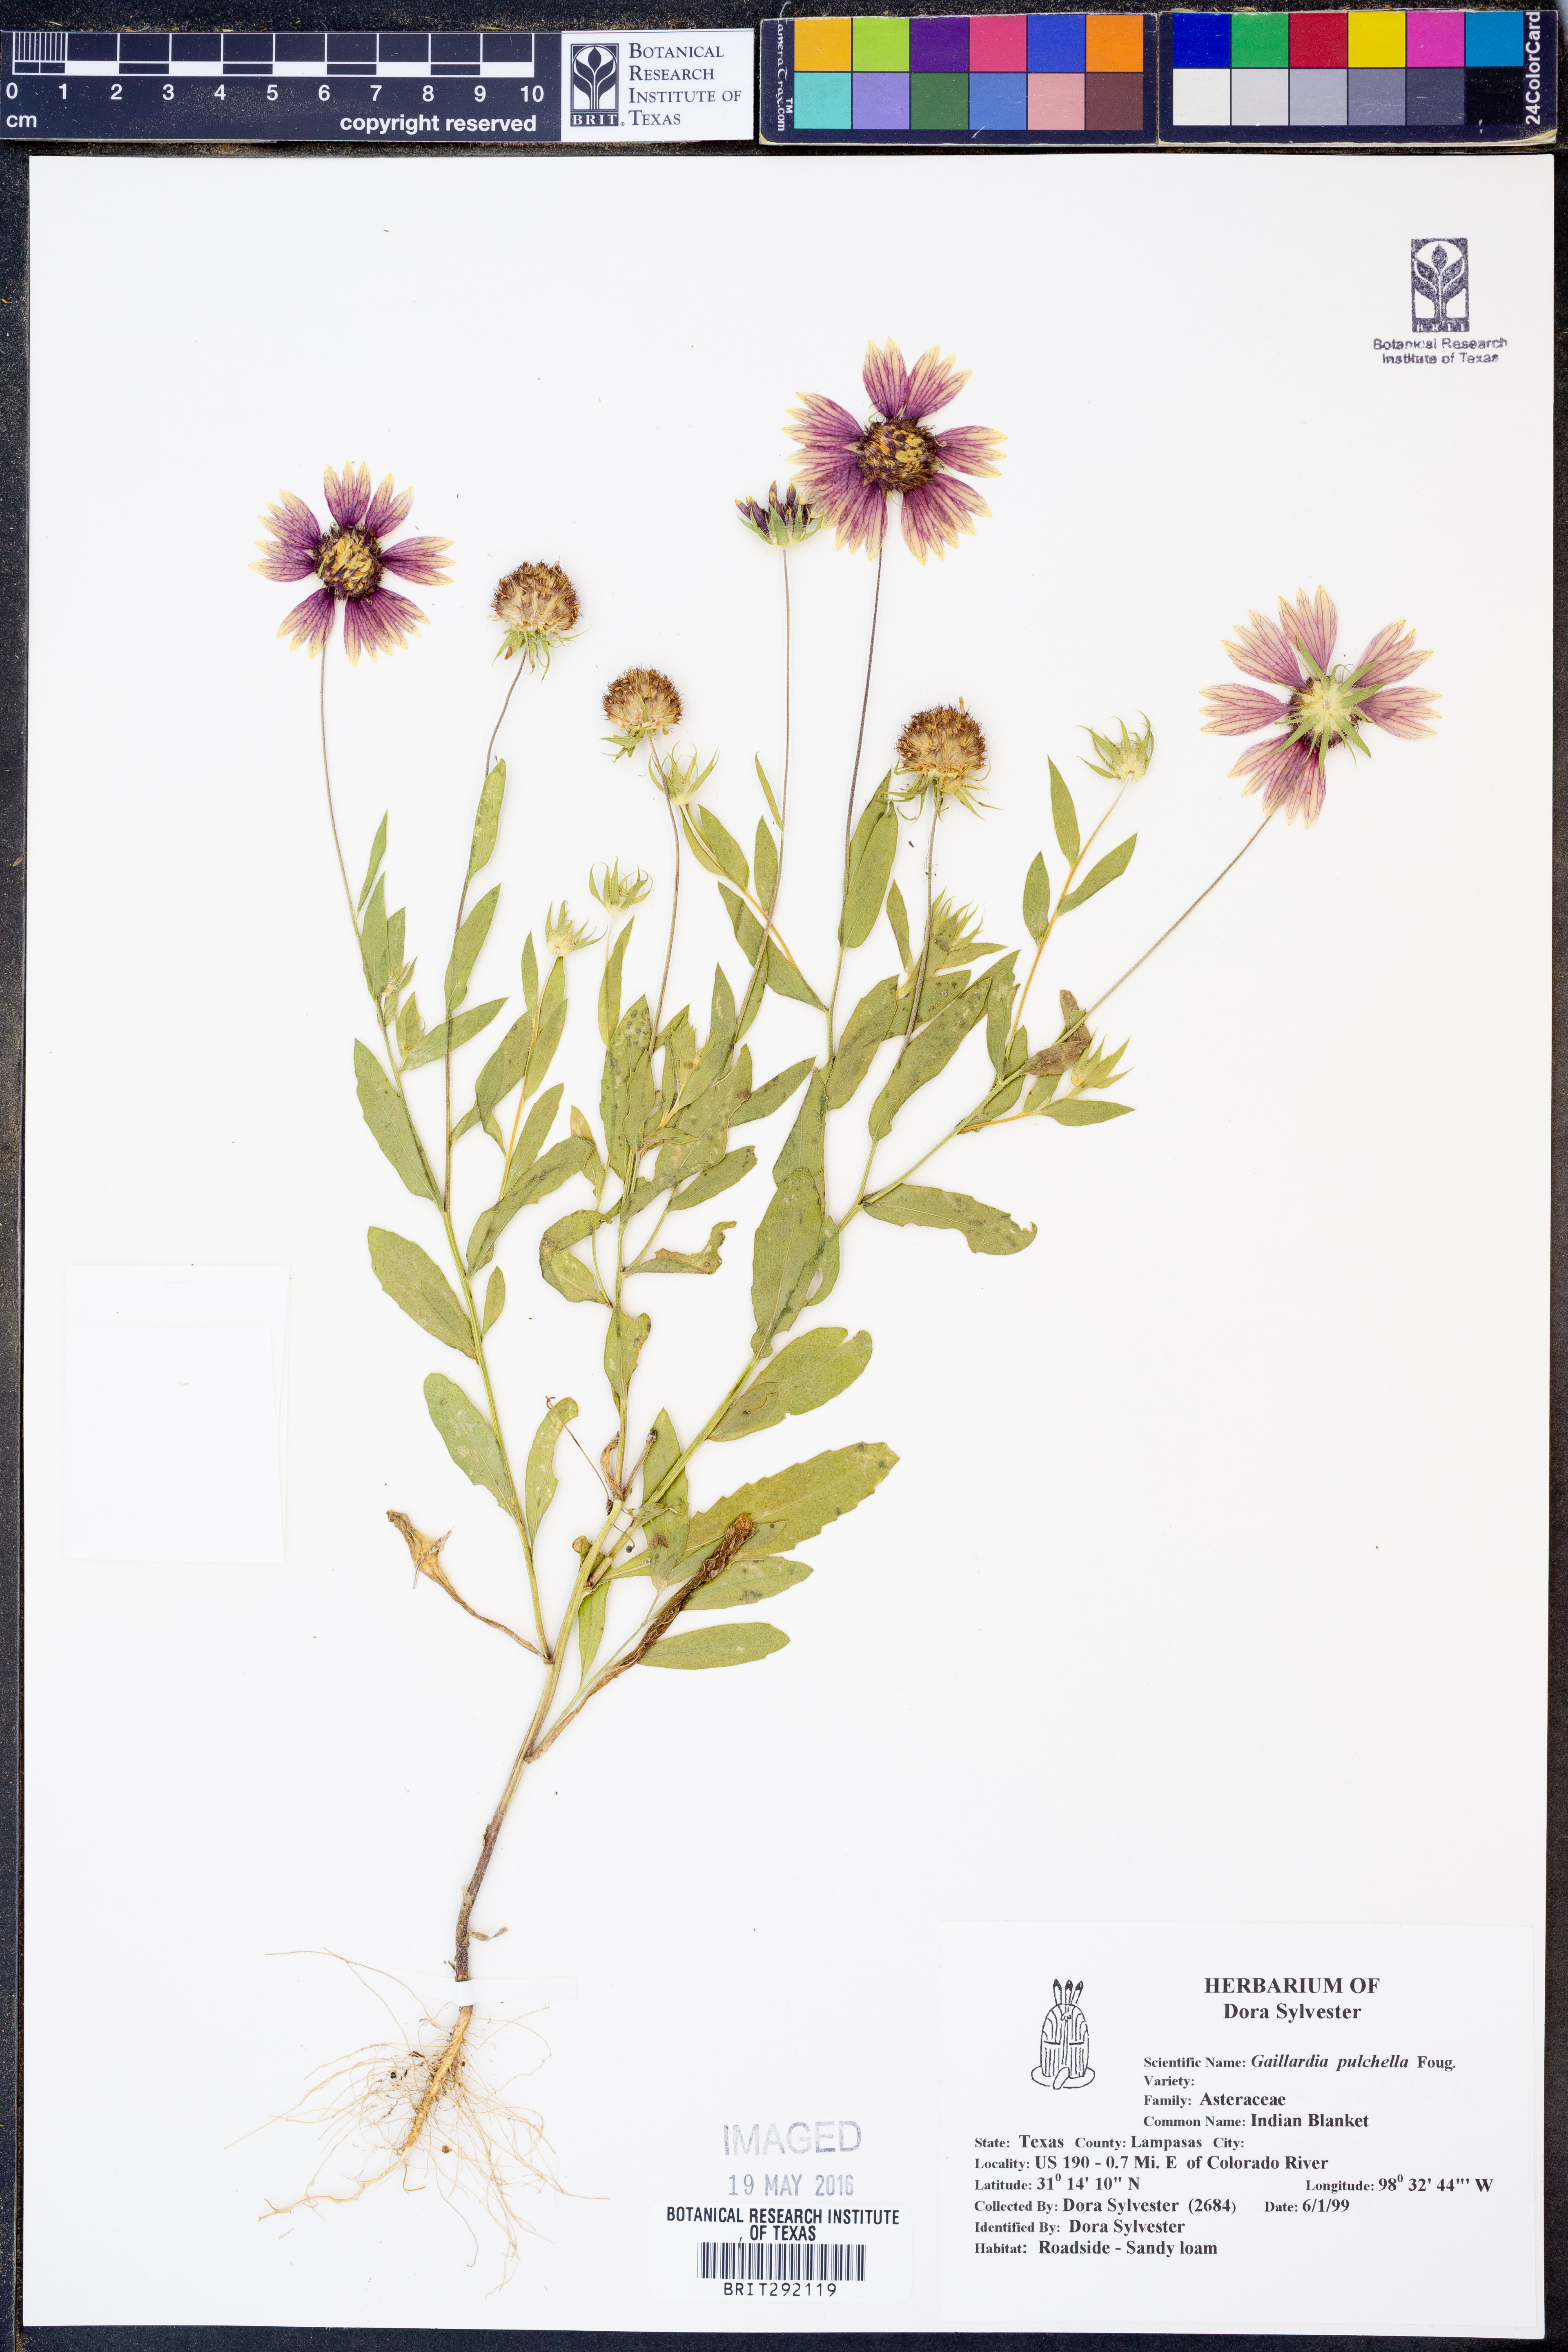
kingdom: Plantae
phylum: Tracheophyta
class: Magnoliopsida
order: Asterales
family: Asteraceae
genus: Gaillardia
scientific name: Gaillardia pulchella
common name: Firewheel
